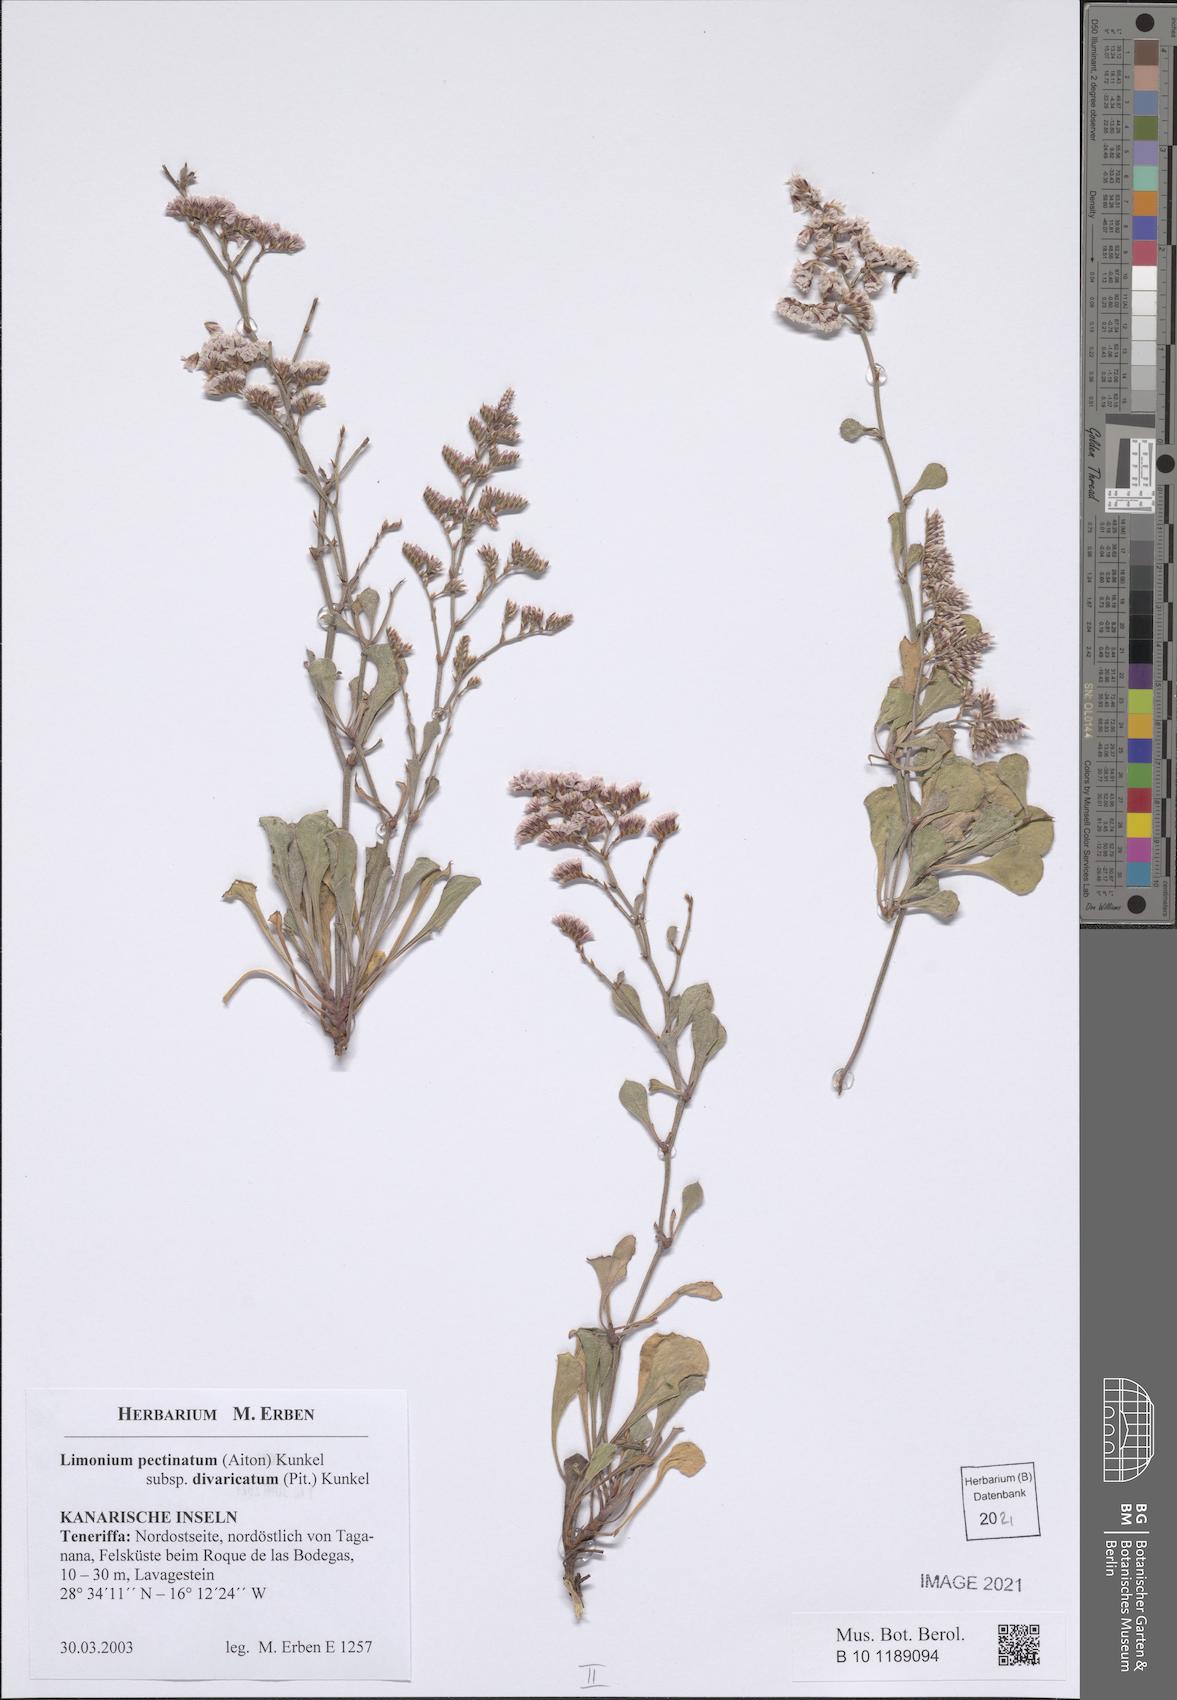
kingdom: Plantae
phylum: Tracheophyta
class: Magnoliopsida
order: Caryophyllales
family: Plumbaginaceae
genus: Limonium
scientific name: Limonium pectinatum
